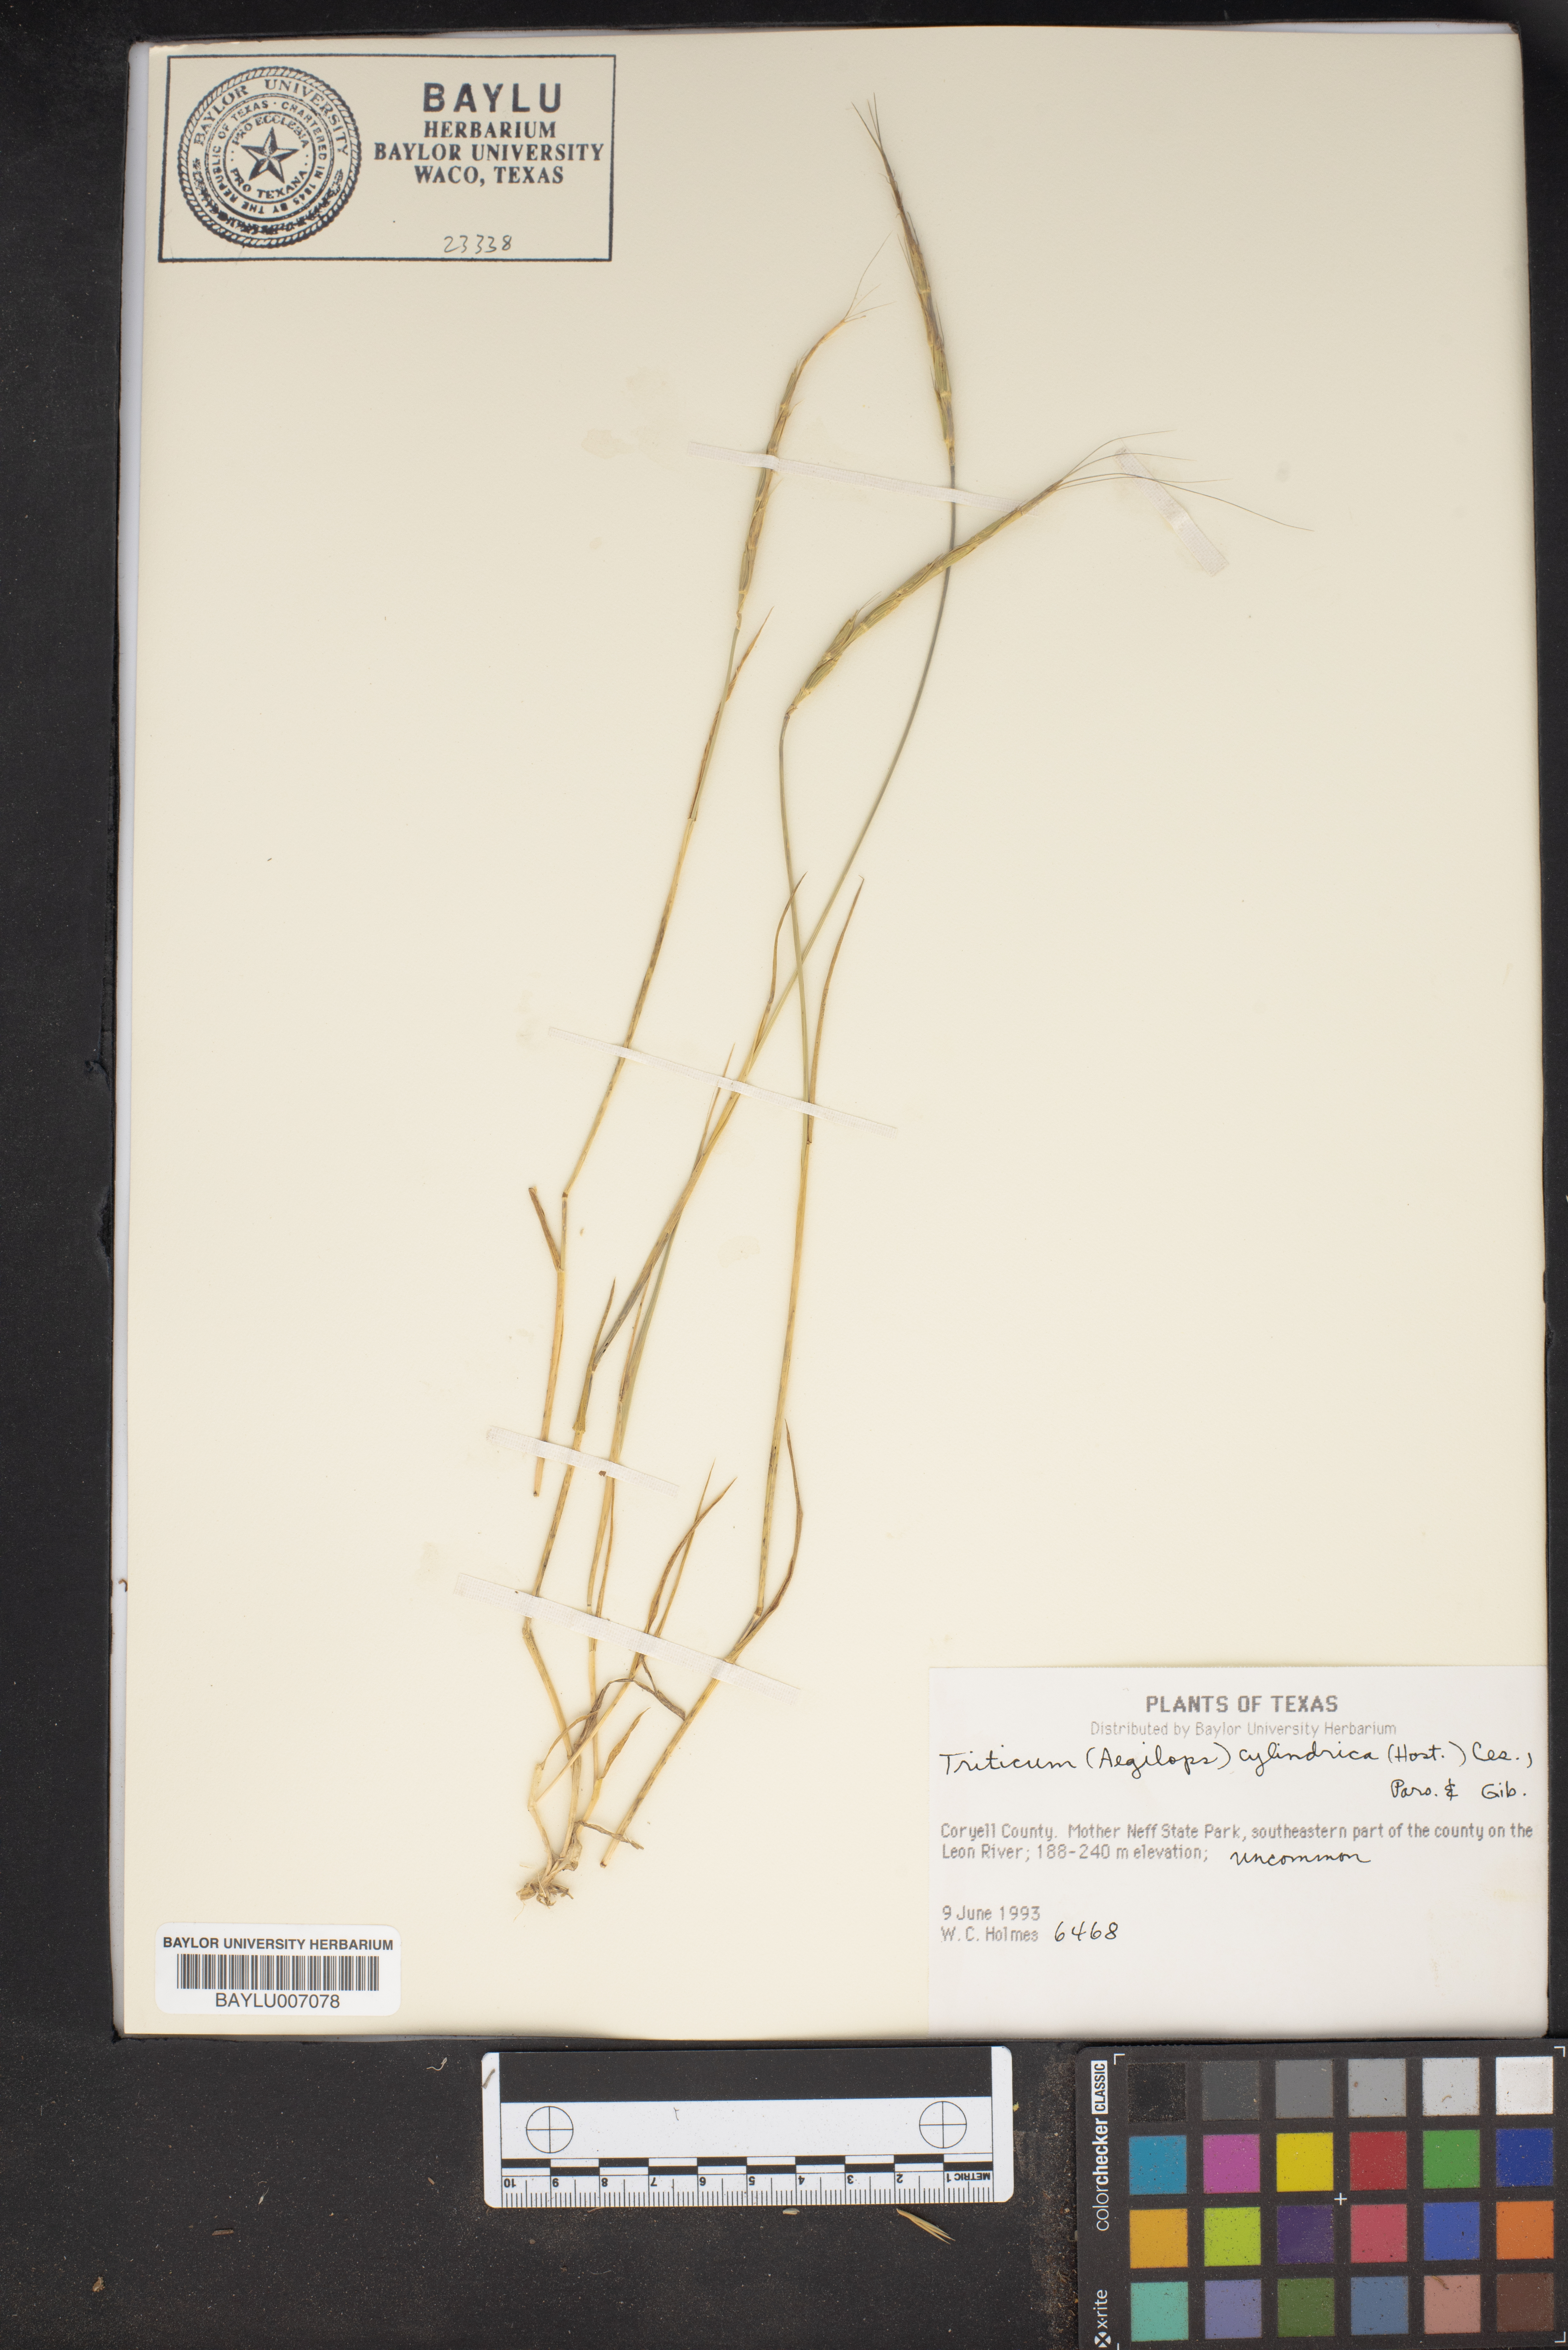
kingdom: Plantae
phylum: Tracheophyta
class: Liliopsida
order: Poales
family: Poaceae
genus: Aegilops
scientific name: Aegilops tauschii
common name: Rough-spike hard grass
